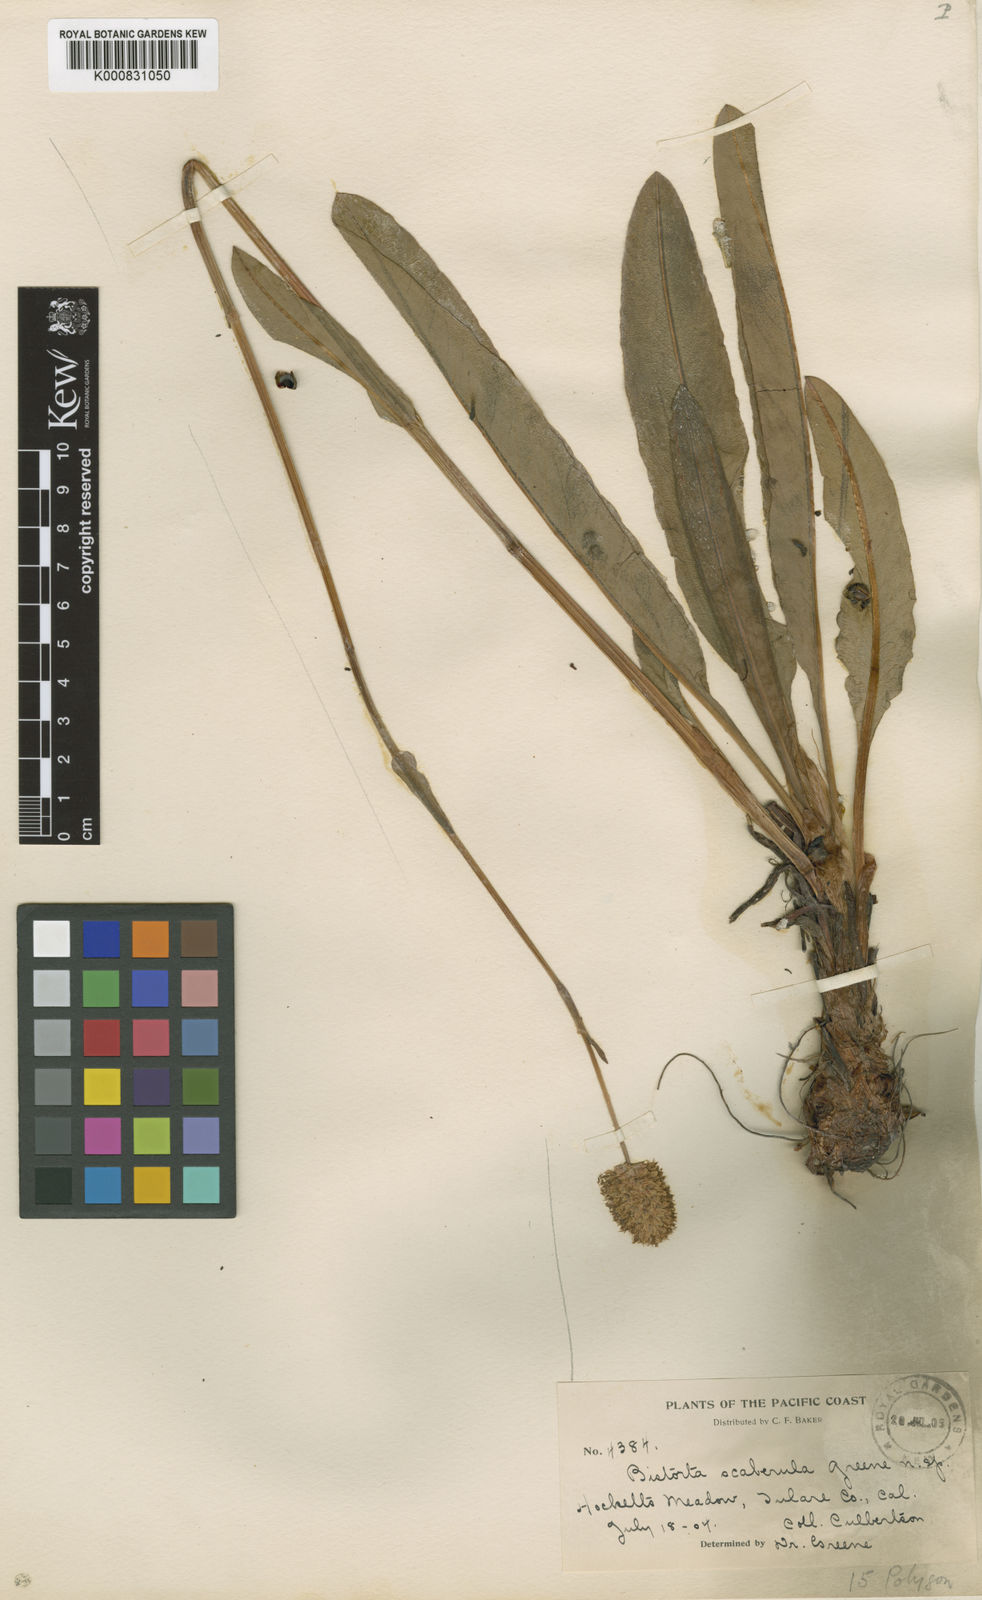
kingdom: Plantae
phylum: Tracheophyta
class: Magnoliopsida
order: Caryophyllales
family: Polygonaceae
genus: Bistorta
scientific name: Bistorta bistortoides
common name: American bistort
